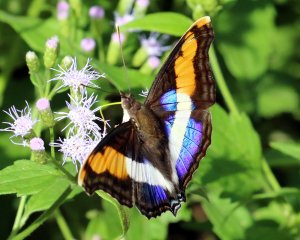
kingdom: Animalia
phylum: Arthropoda
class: Insecta
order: Lepidoptera
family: Nymphalidae
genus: Doxocopa
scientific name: Doxocopa laure
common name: Silver Emperor
